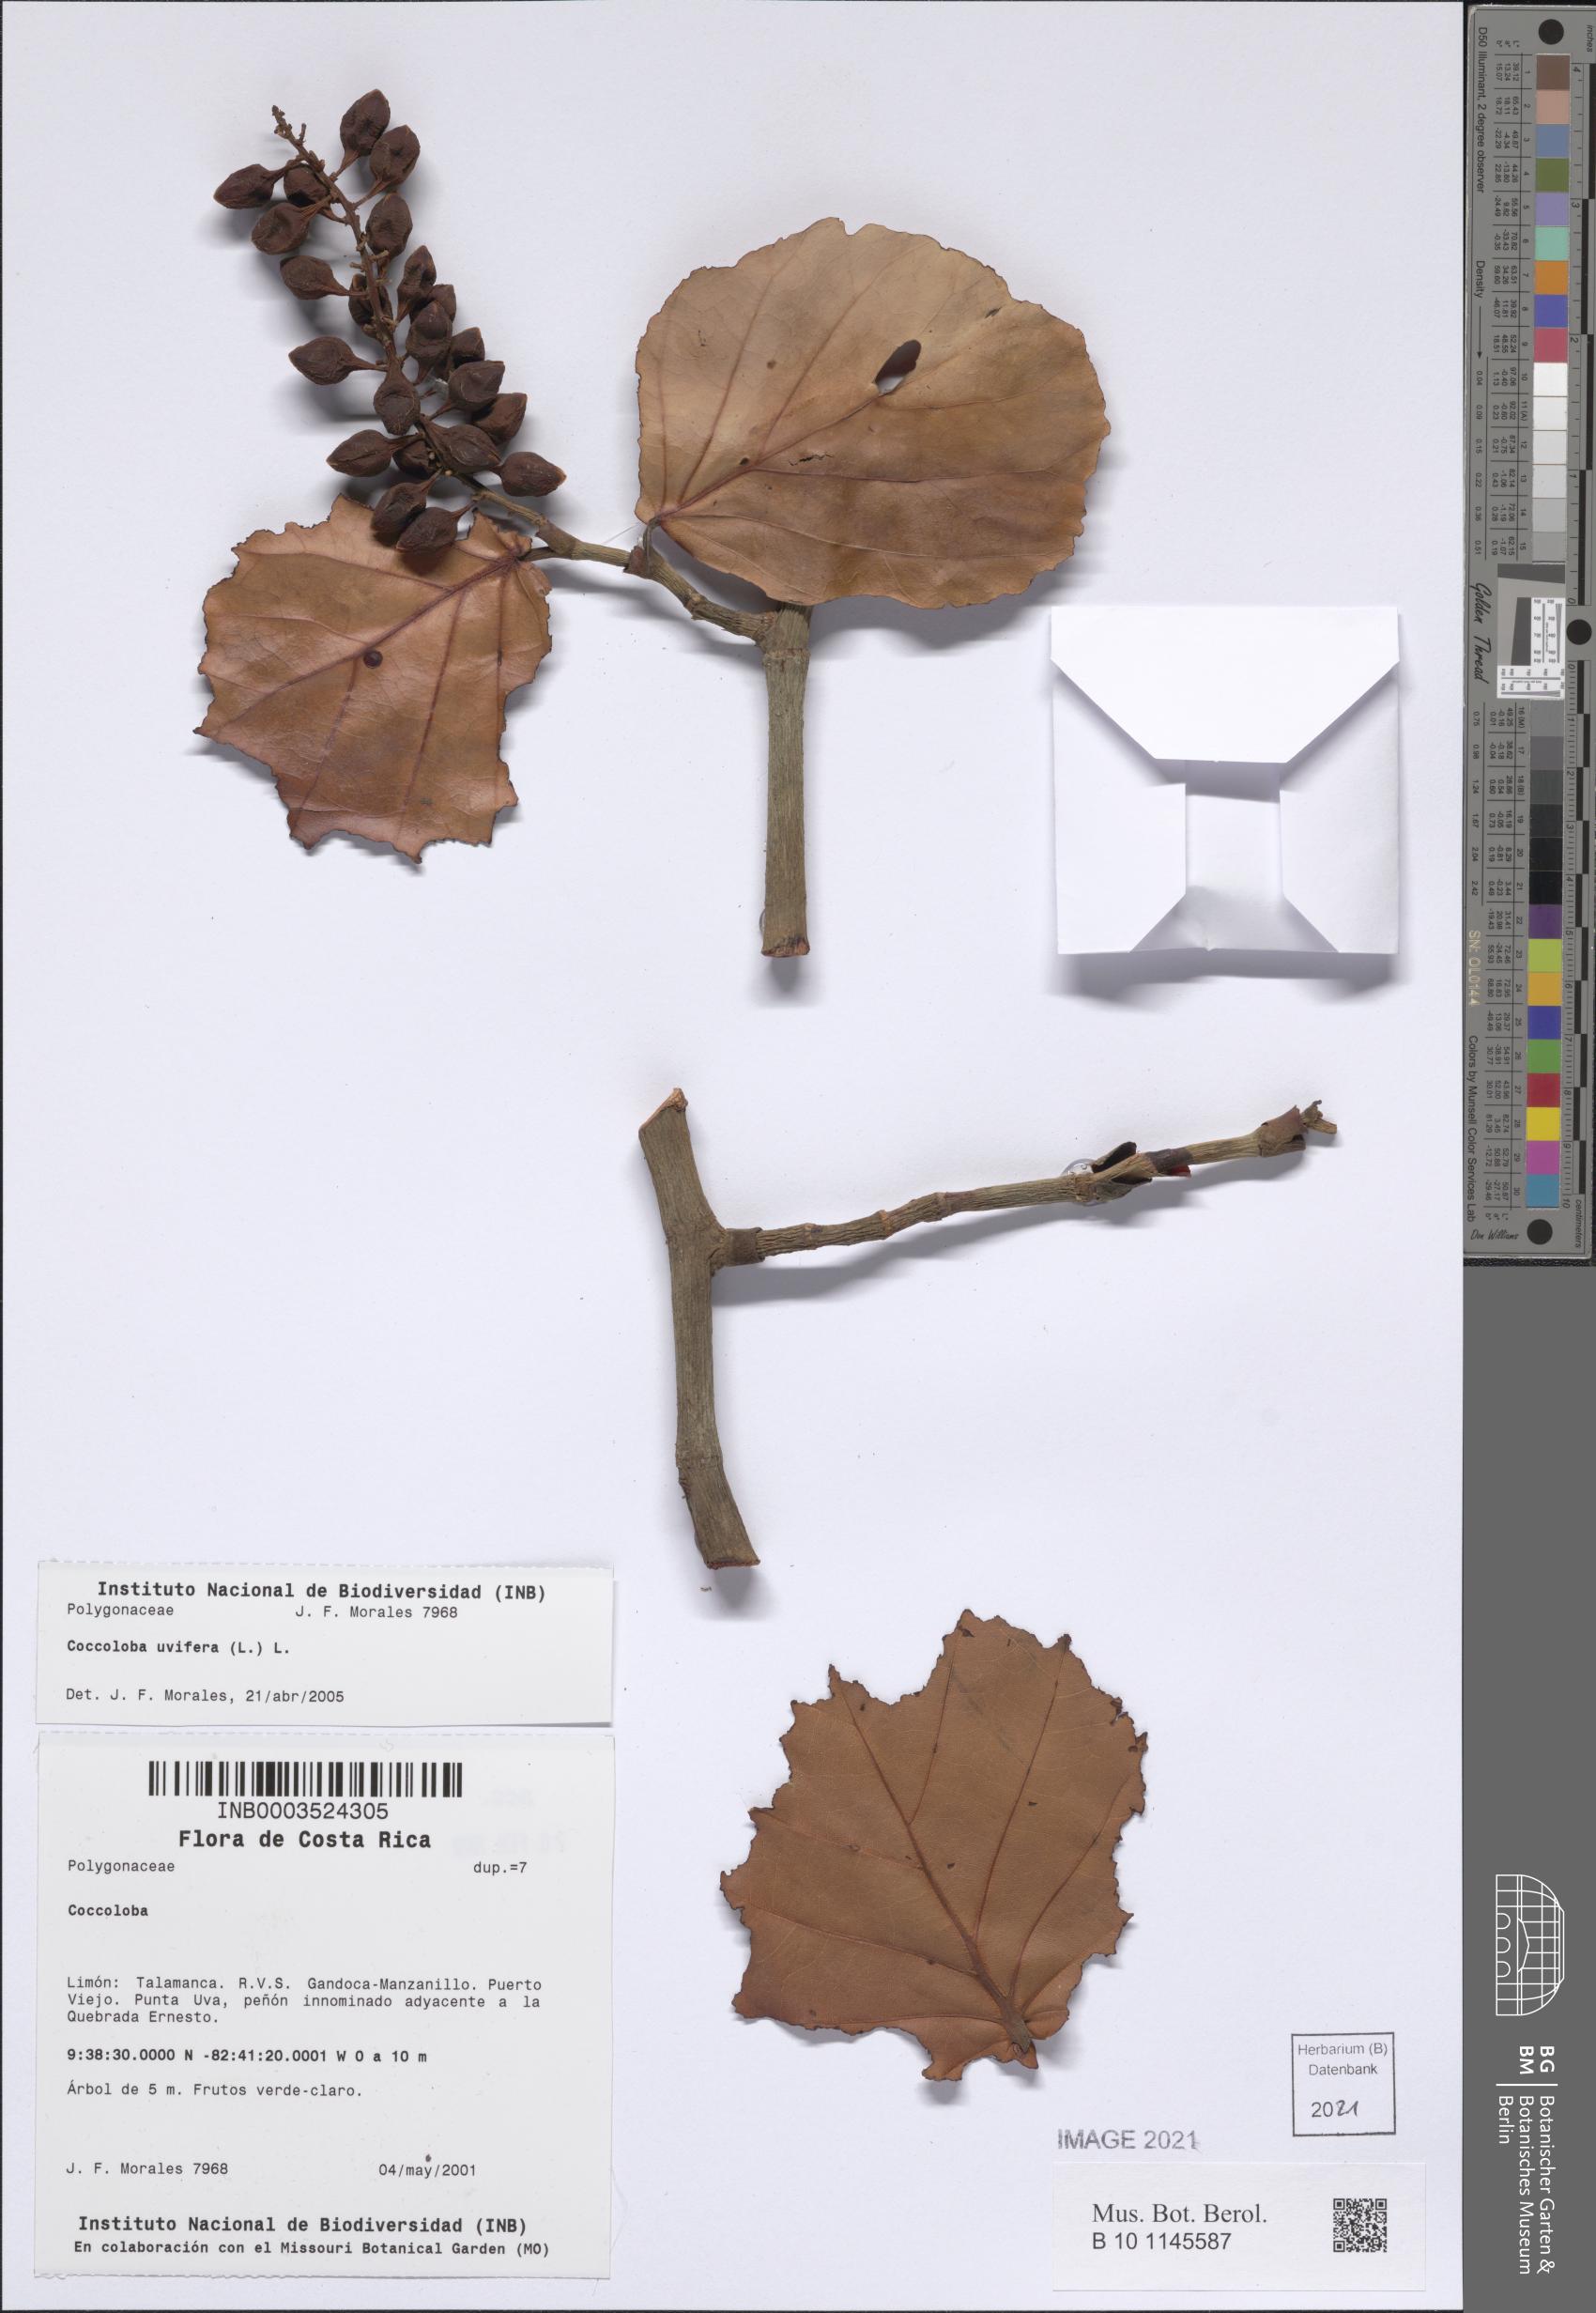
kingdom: Plantae
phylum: Tracheophyta
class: Magnoliopsida
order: Caryophyllales
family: Polygonaceae
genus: Coccoloba
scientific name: Coccoloba uvifera
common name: Seagrape
